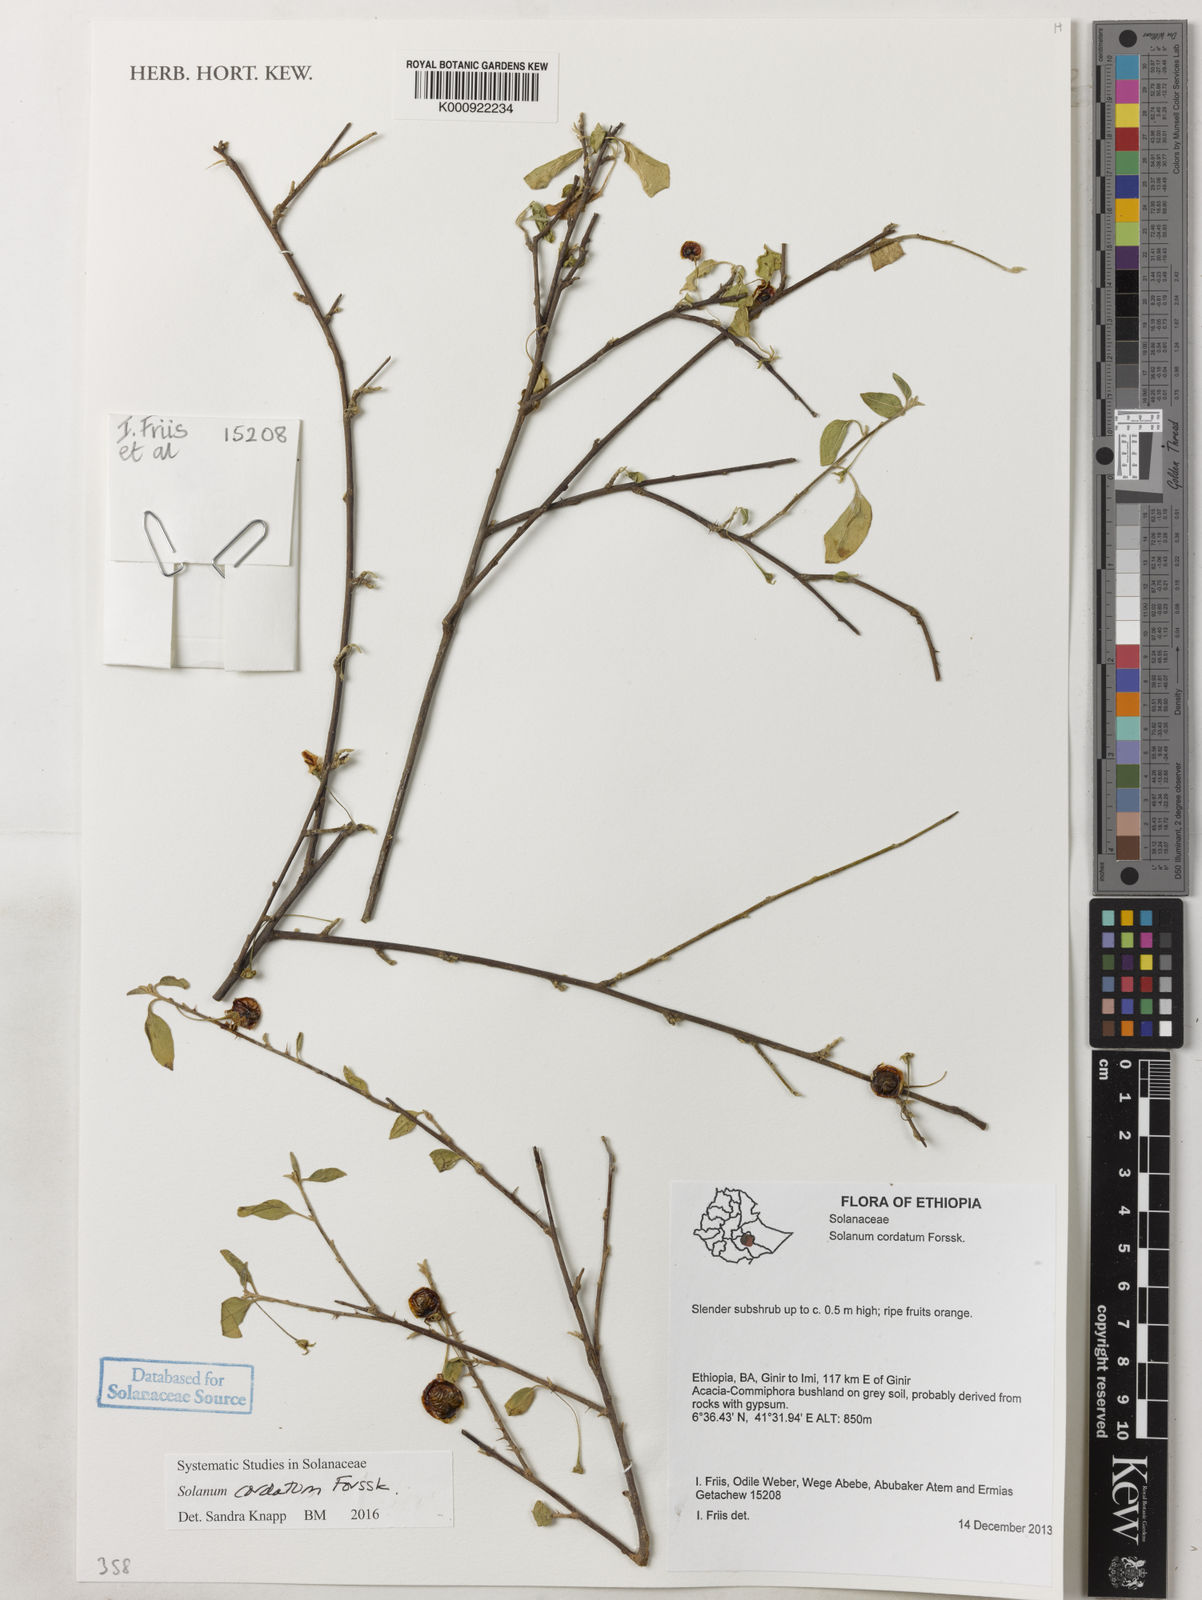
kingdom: Plantae
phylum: Tracheophyta
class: Magnoliopsida
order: Solanales
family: Solanaceae
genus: Solanum
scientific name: Solanum cordatum
